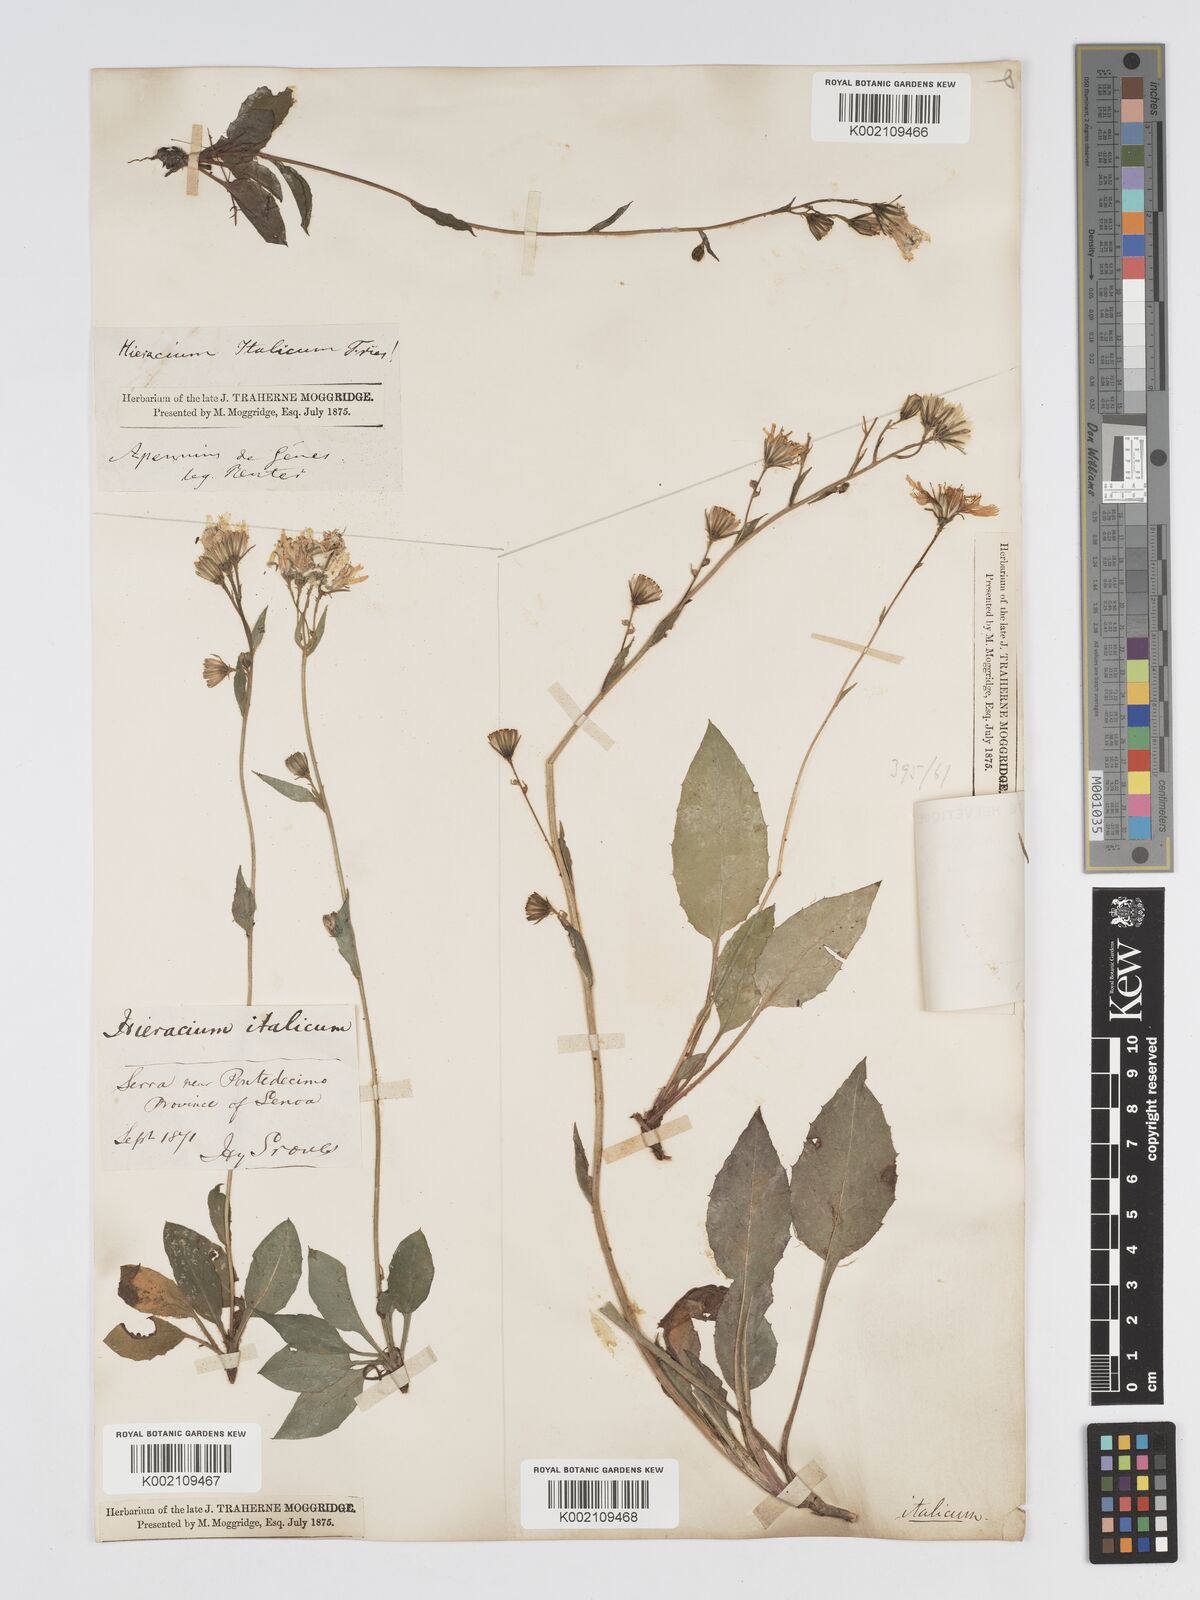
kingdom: Plantae
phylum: Tracheophyta
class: Magnoliopsida
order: Asterales
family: Asteraceae
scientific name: Asteraceae
